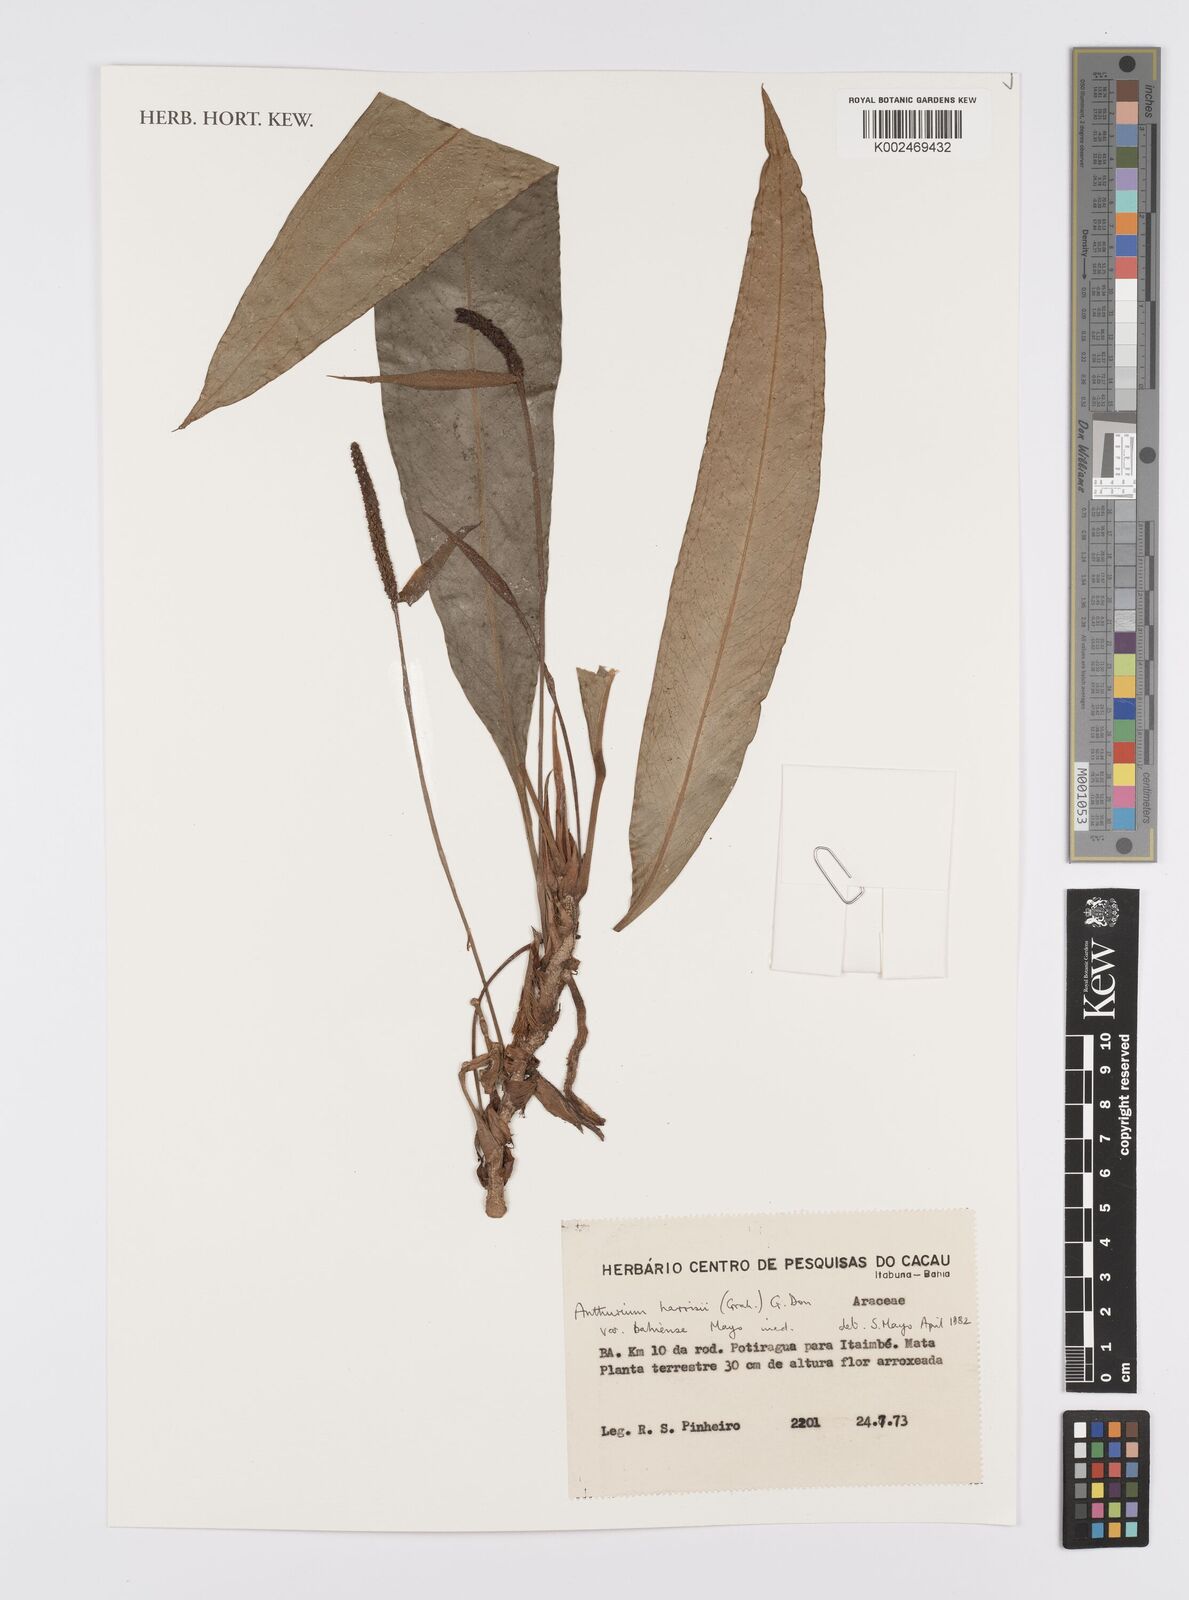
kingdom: Plantae
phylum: Tracheophyta
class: Liliopsida
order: Alismatales
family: Araceae
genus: Anthurium
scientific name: Anthurium harrisii
